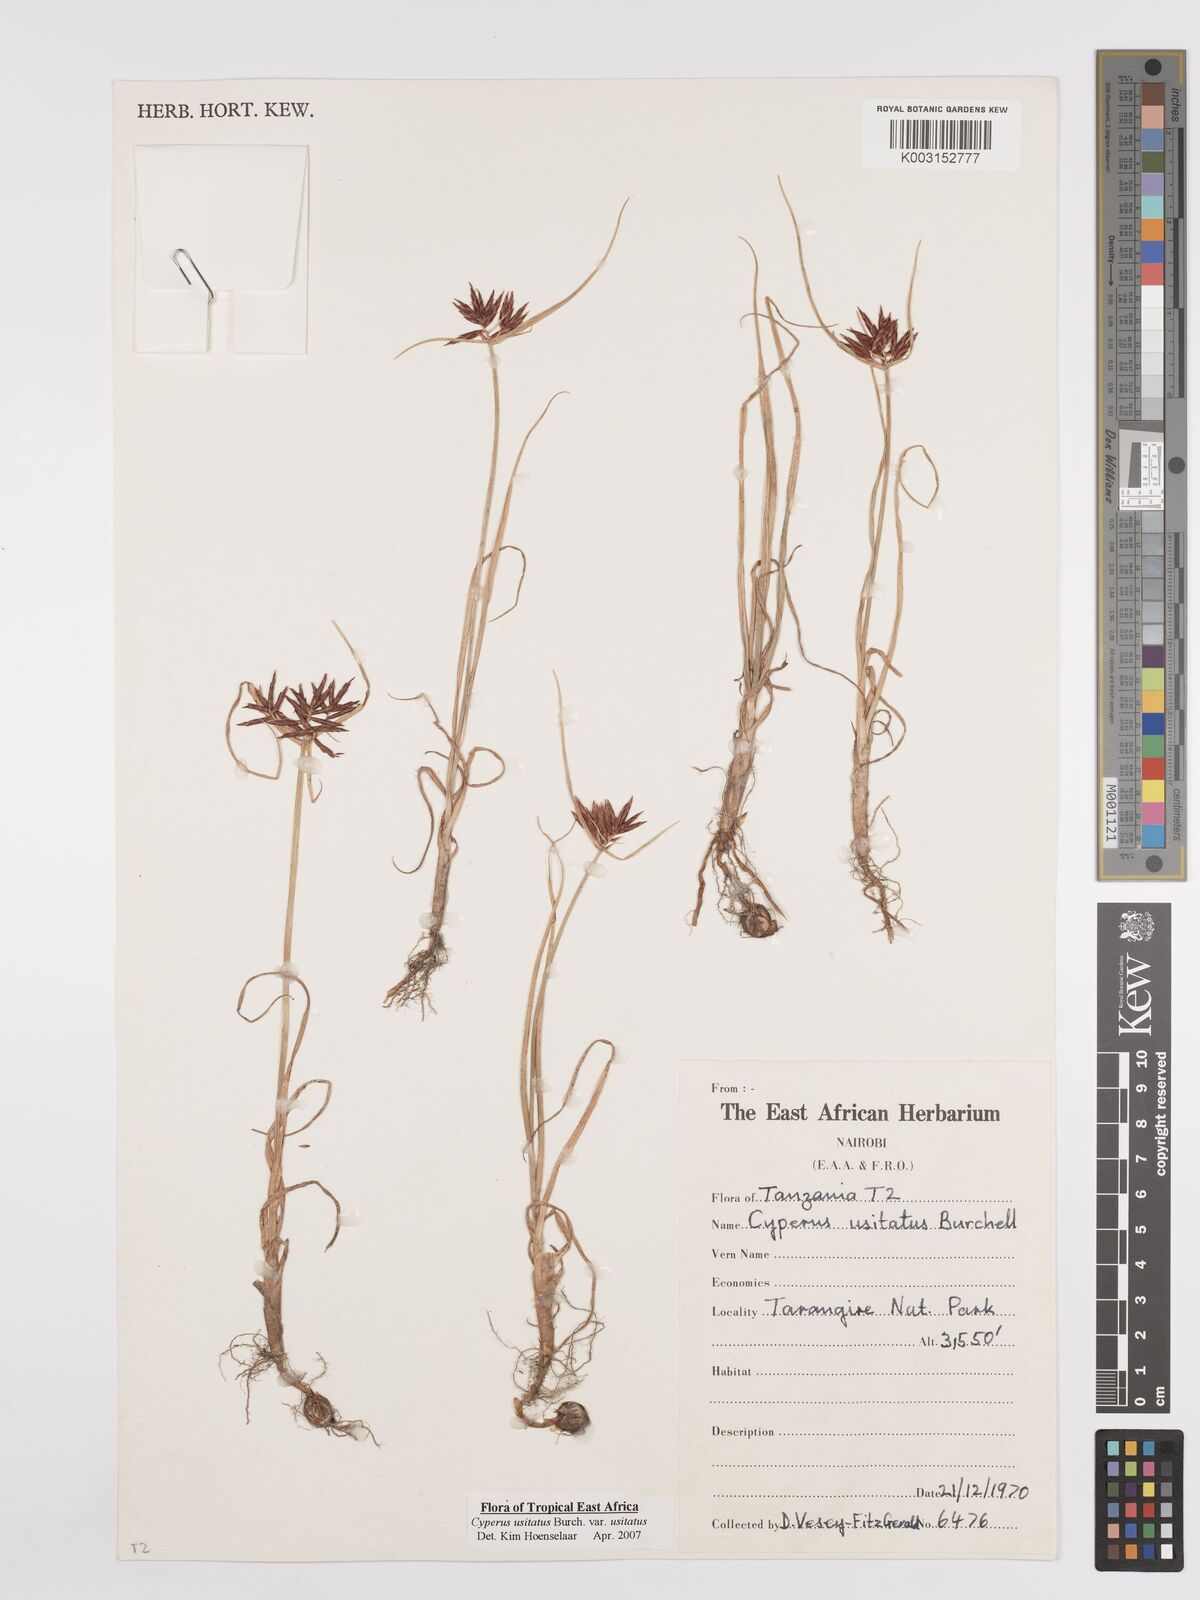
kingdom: Plantae
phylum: Tracheophyta
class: Liliopsida
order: Poales
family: Cyperaceae
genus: Cyperus
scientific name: Cyperus usitatus
